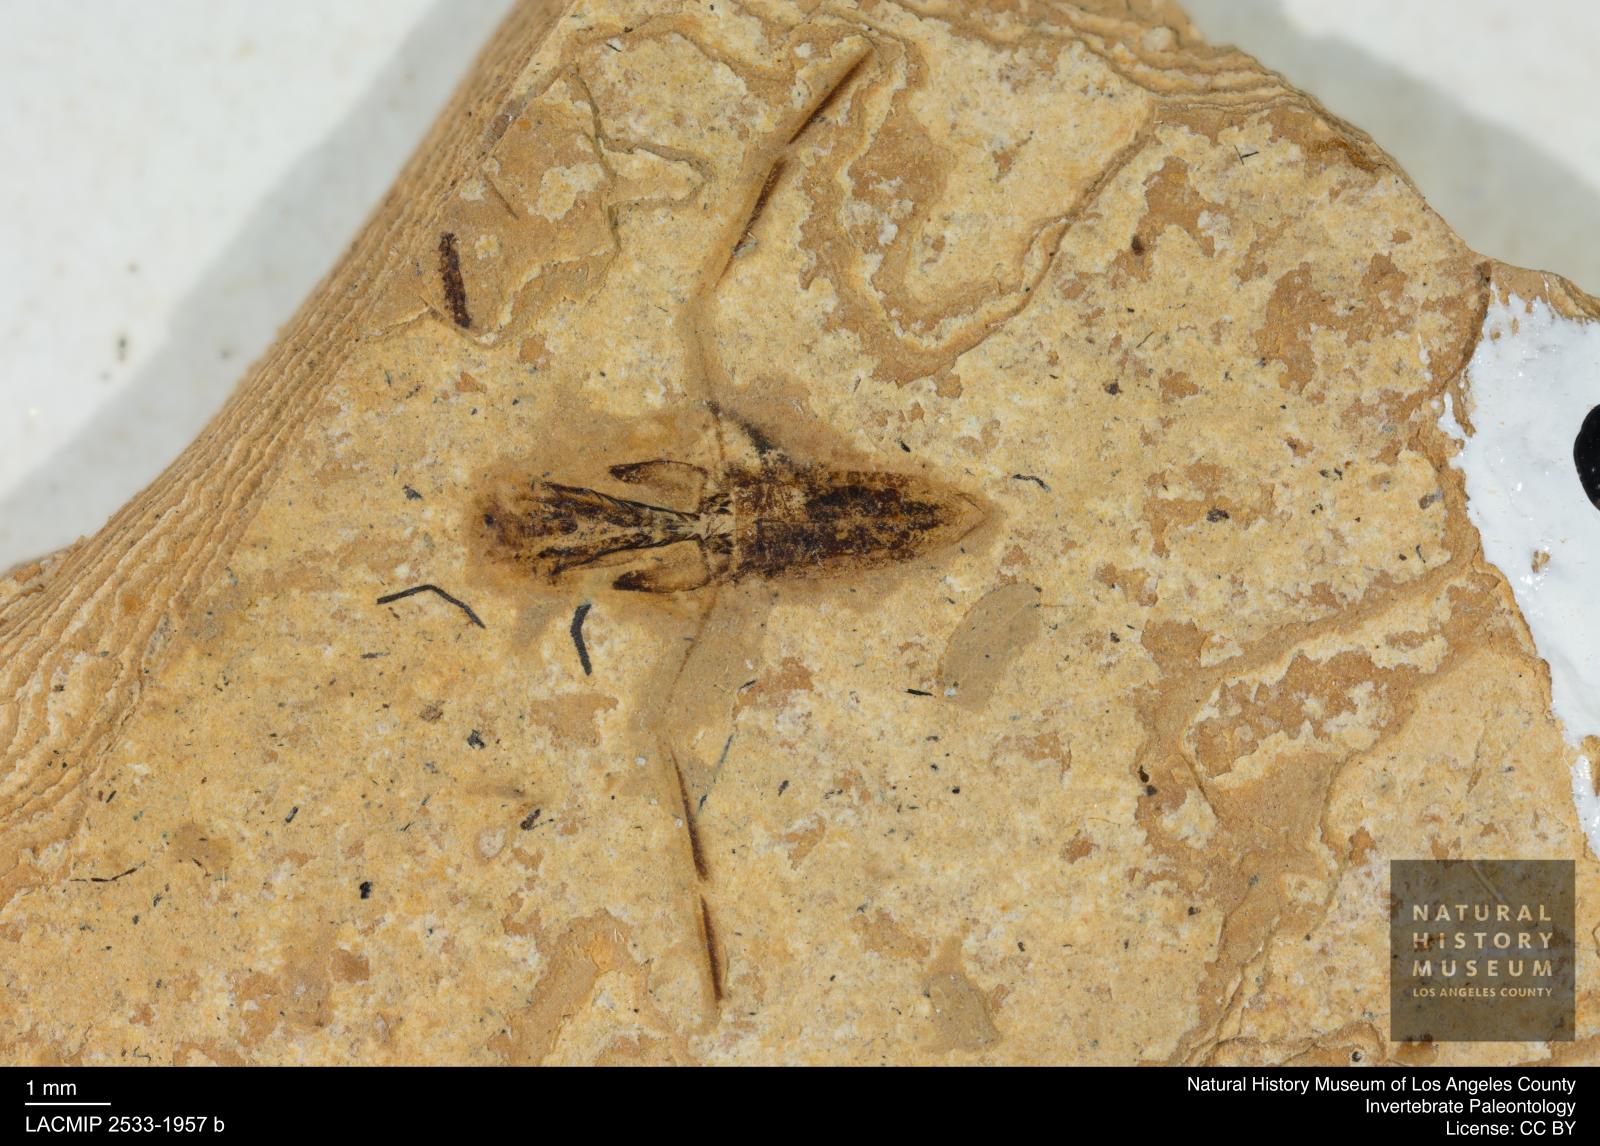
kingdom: Animalia
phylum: Arthropoda
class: Insecta
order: Hemiptera
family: Notonectidae
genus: Anisops
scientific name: Anisops Notonecta deichmuelleri
